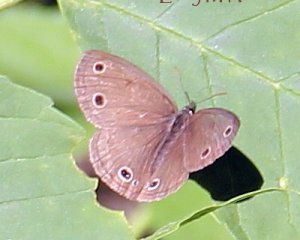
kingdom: Animalia
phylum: Arthropoda
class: Insecta
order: Lepidoptera
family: Nymphalidae
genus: Euptychia
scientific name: Euptychia cymela
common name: Little Wood Satyr
